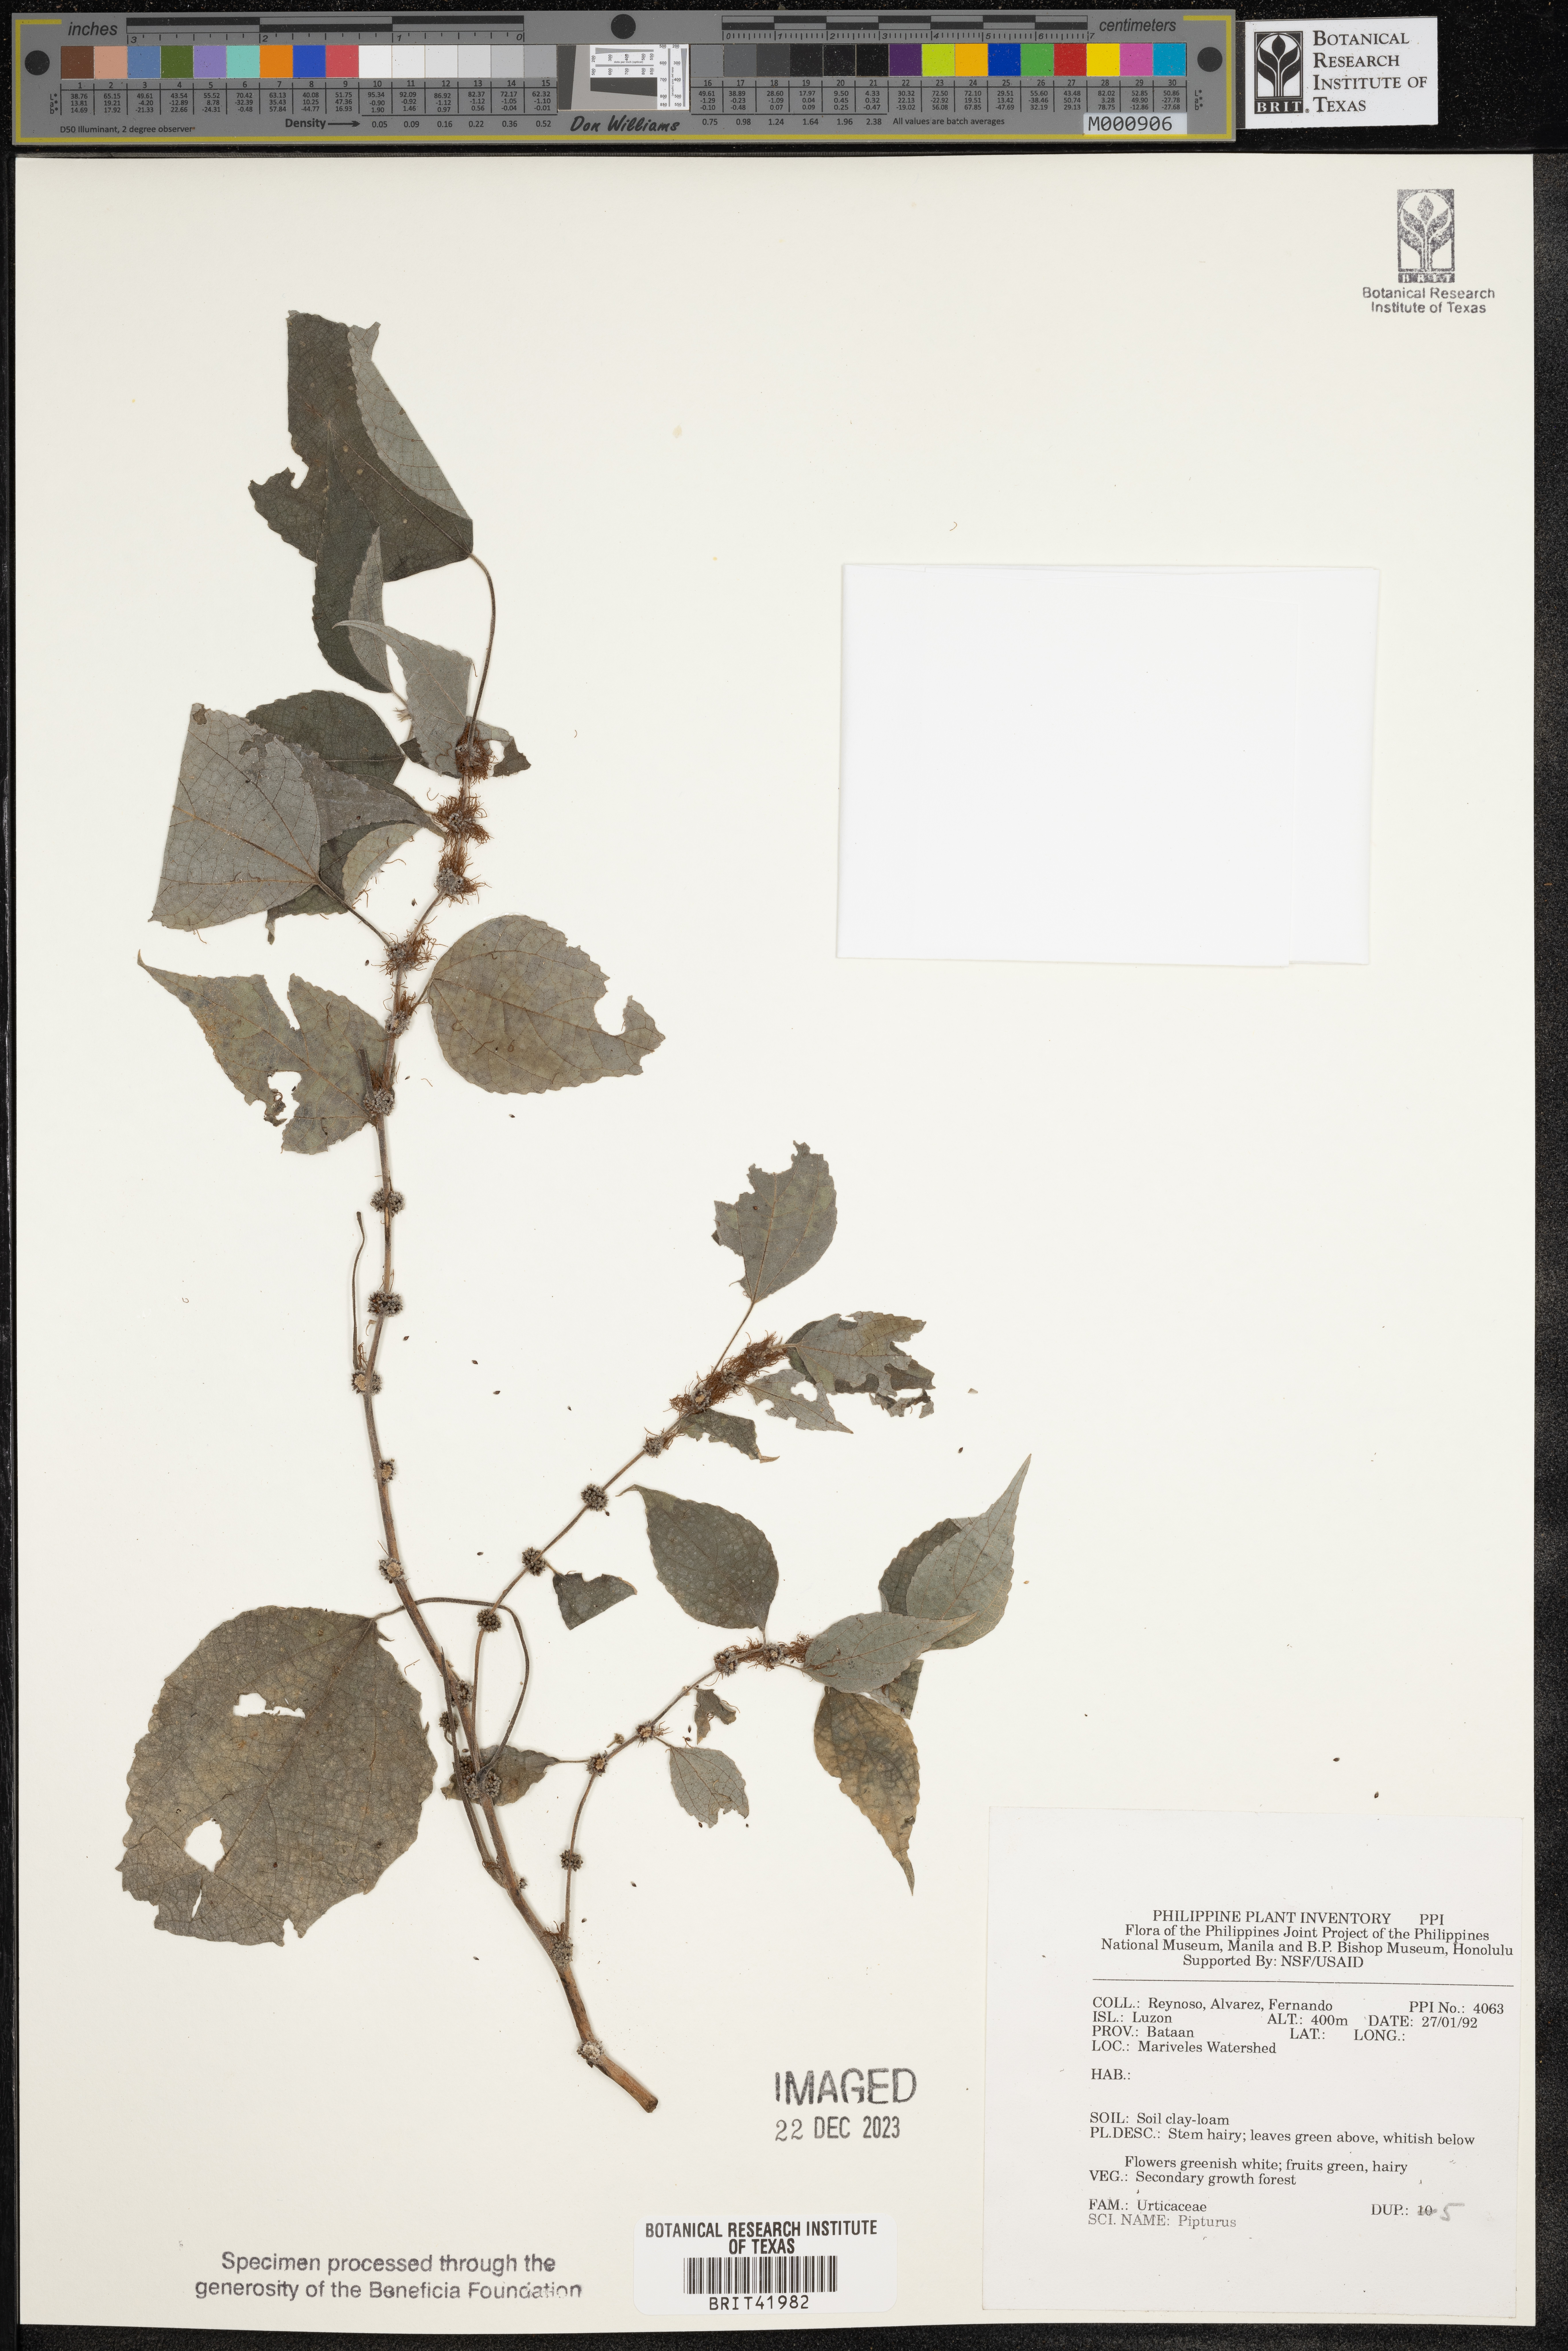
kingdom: Plantae
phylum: Tracheophyta
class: Magnoliopsida
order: Rosales
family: Urticaceae
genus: Pipturus
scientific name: Pipturus
